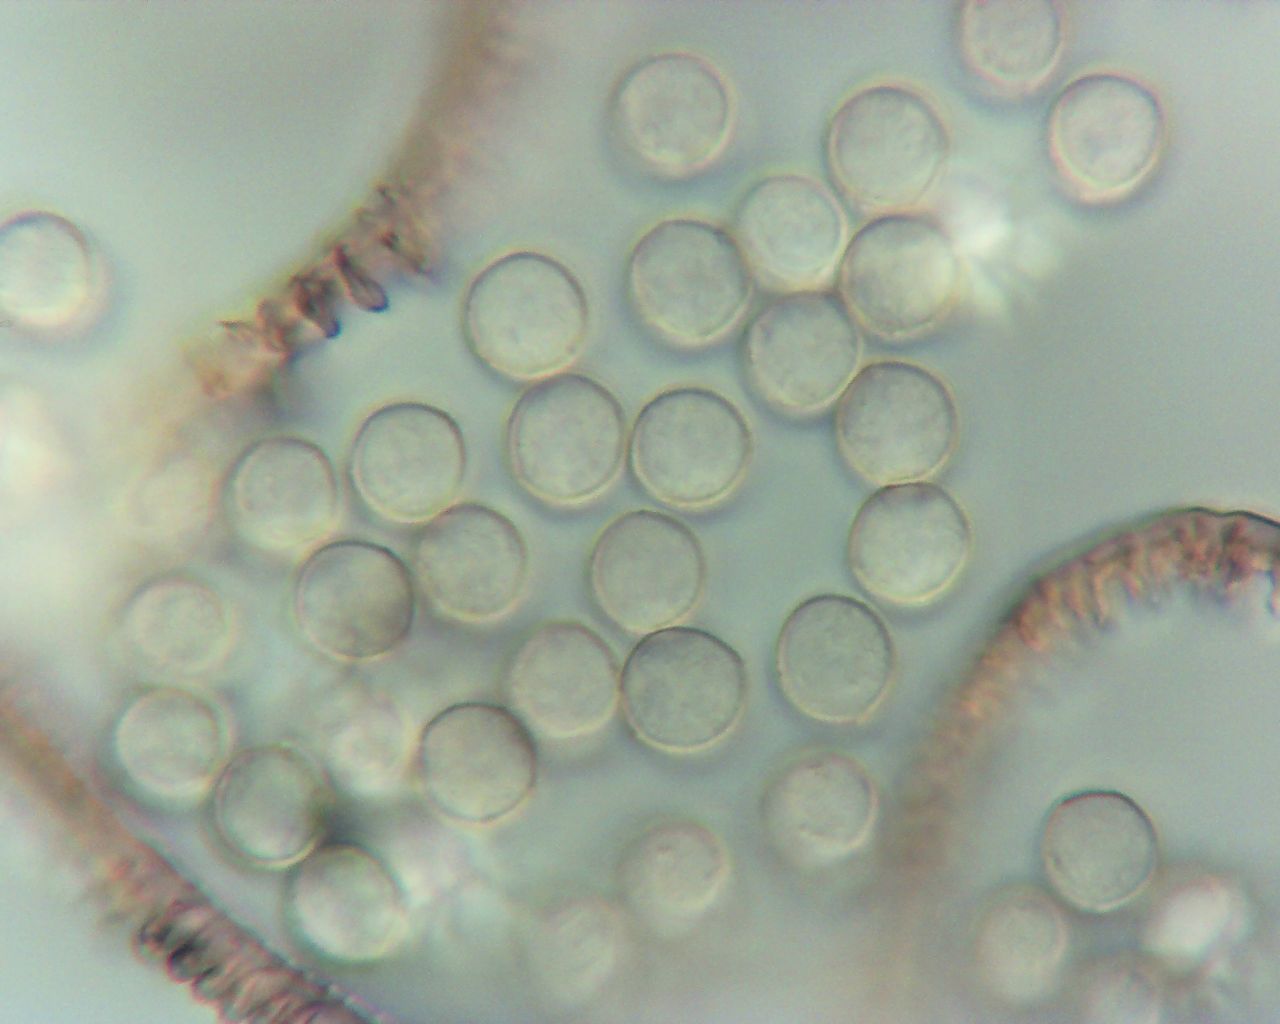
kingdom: Protozoa
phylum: Amoebozoa
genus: Arcyria
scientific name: Arcyria
